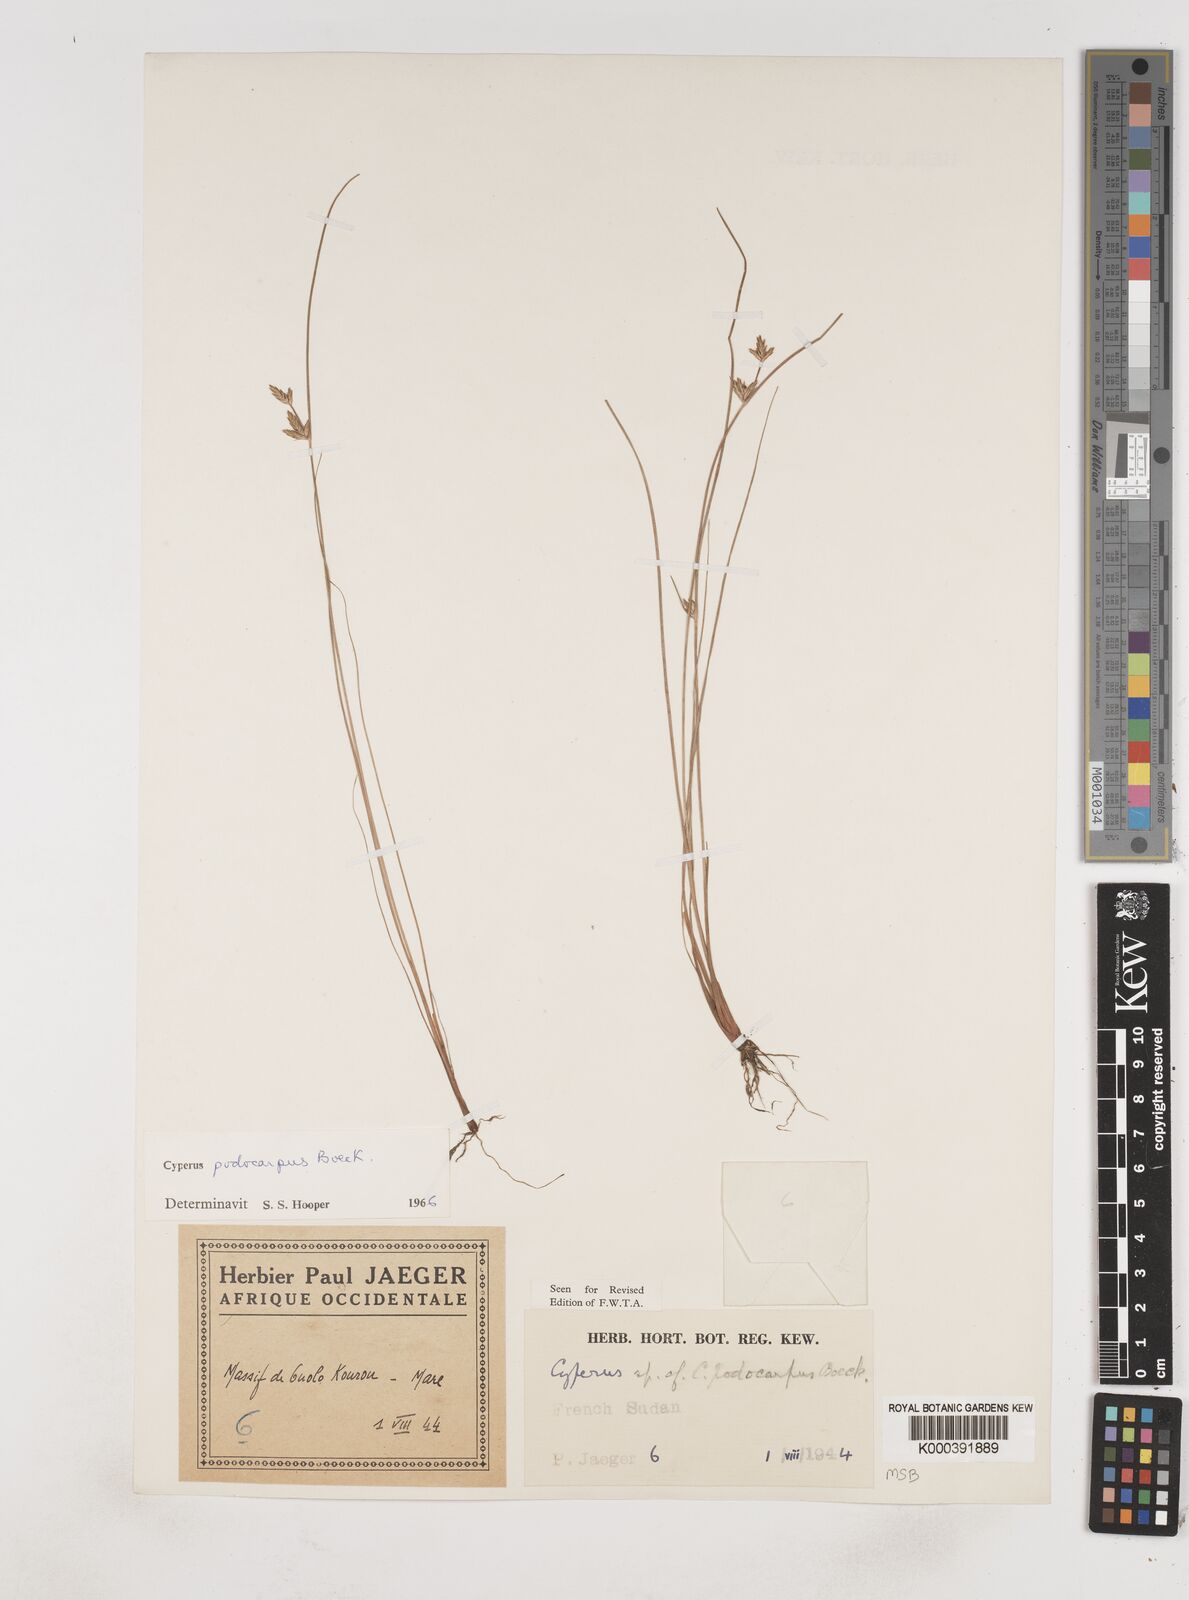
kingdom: Plantae
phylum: Tracheophyta
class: Liliopsida
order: Poales
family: Cyperaceae
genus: Cyperus
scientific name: Cyperus podocarpus
